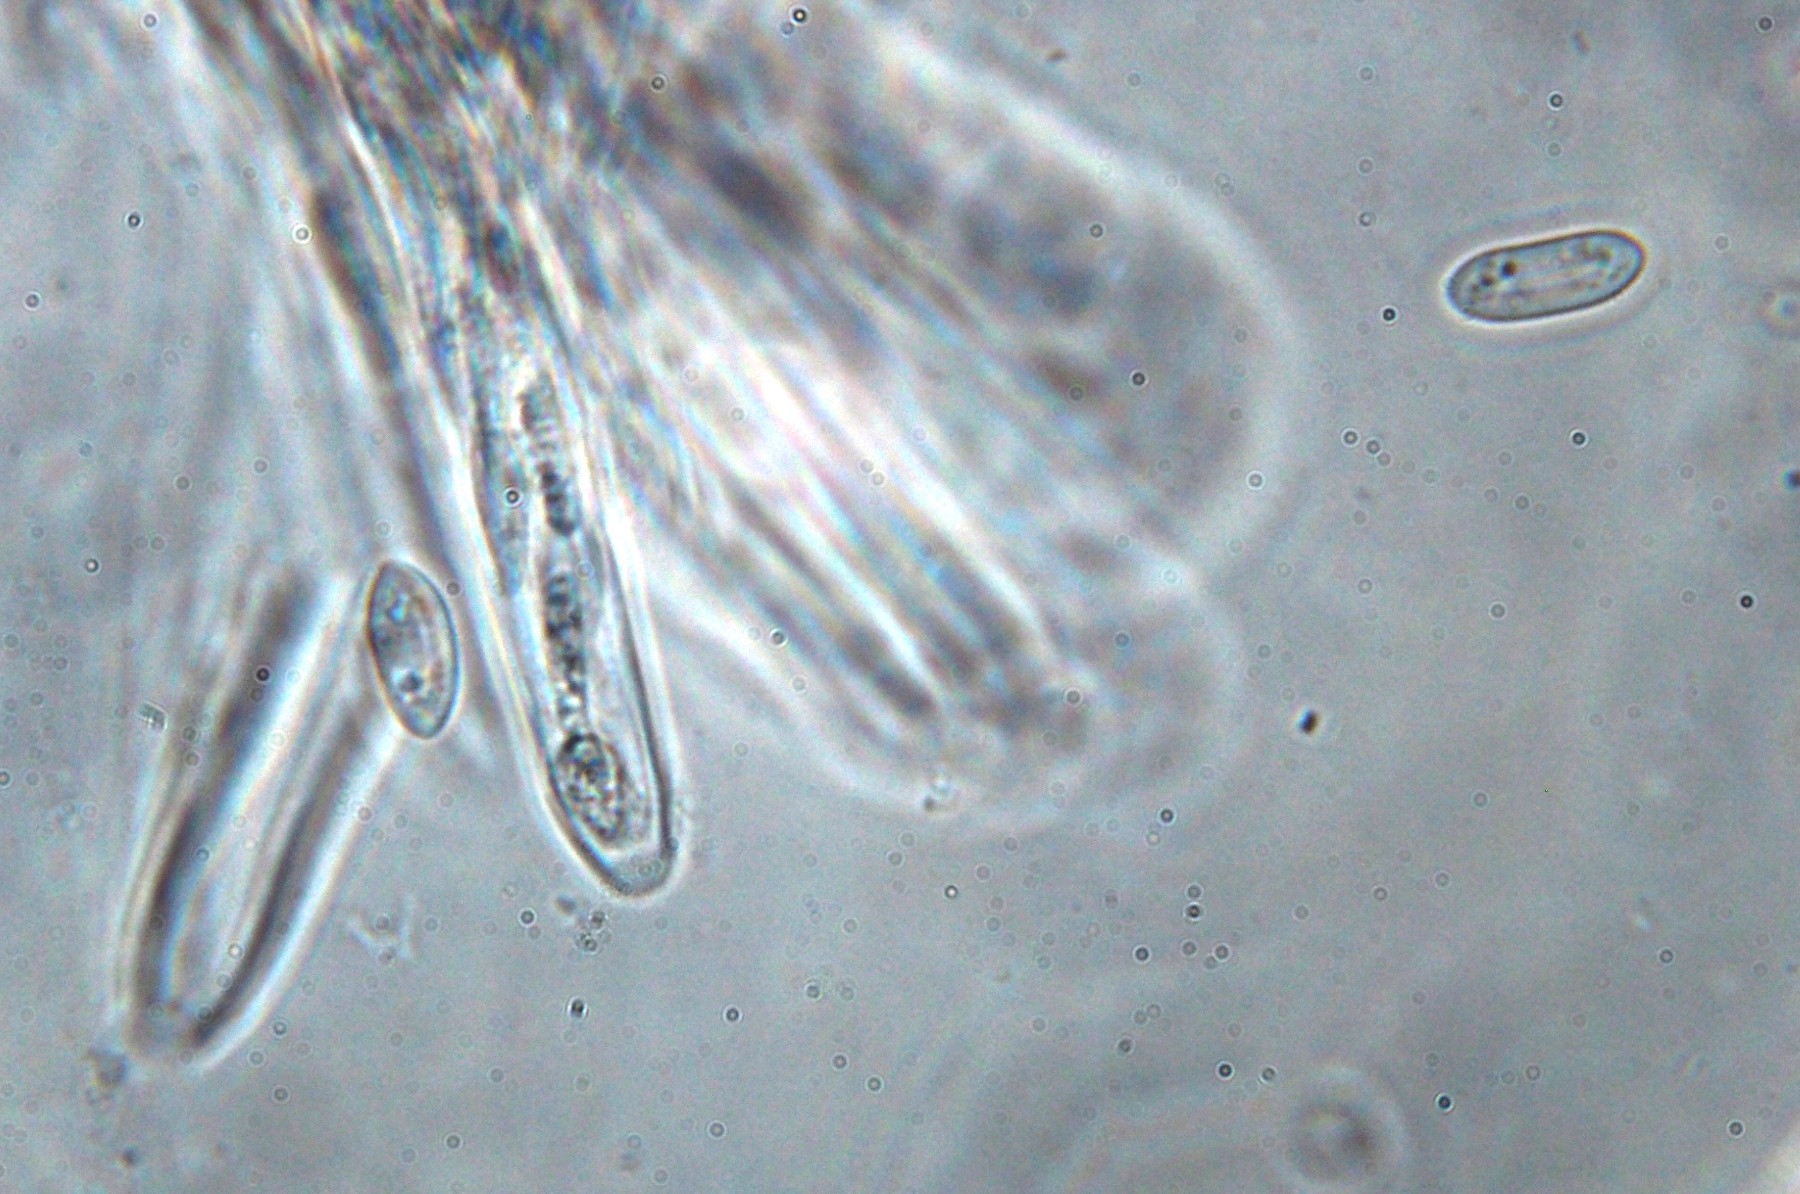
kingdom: Fungi
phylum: Ascomycota
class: Leotiomycetes
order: Helotiales
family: Helotiaceae
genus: Hymenoscyphus
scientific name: Hymenoscyphus calyculus
